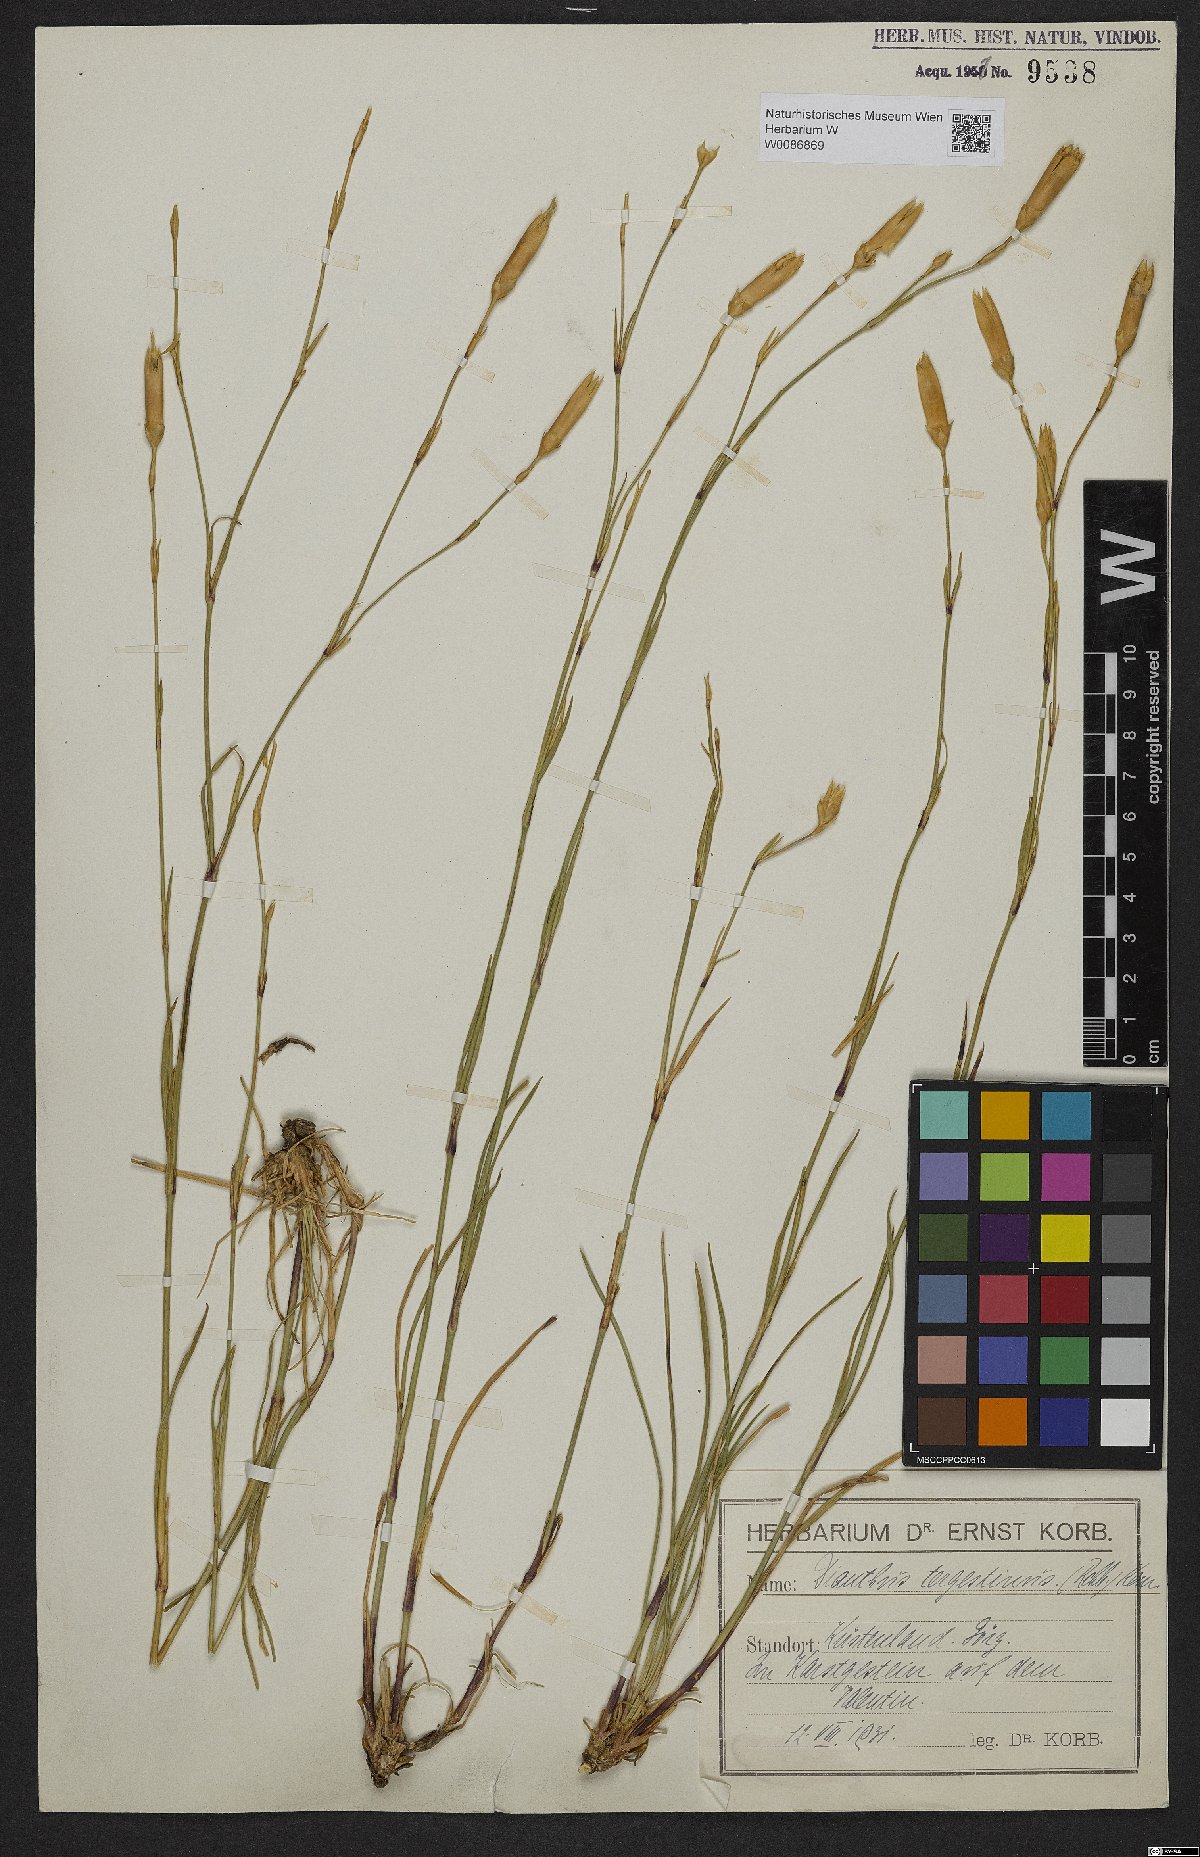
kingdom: Plantae
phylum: Tracheophyta
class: Magnoliopsida
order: Caryophyllales
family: Caryophyllaceae
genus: Dianthus
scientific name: Dianthus sylvestris
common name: Wood pink
